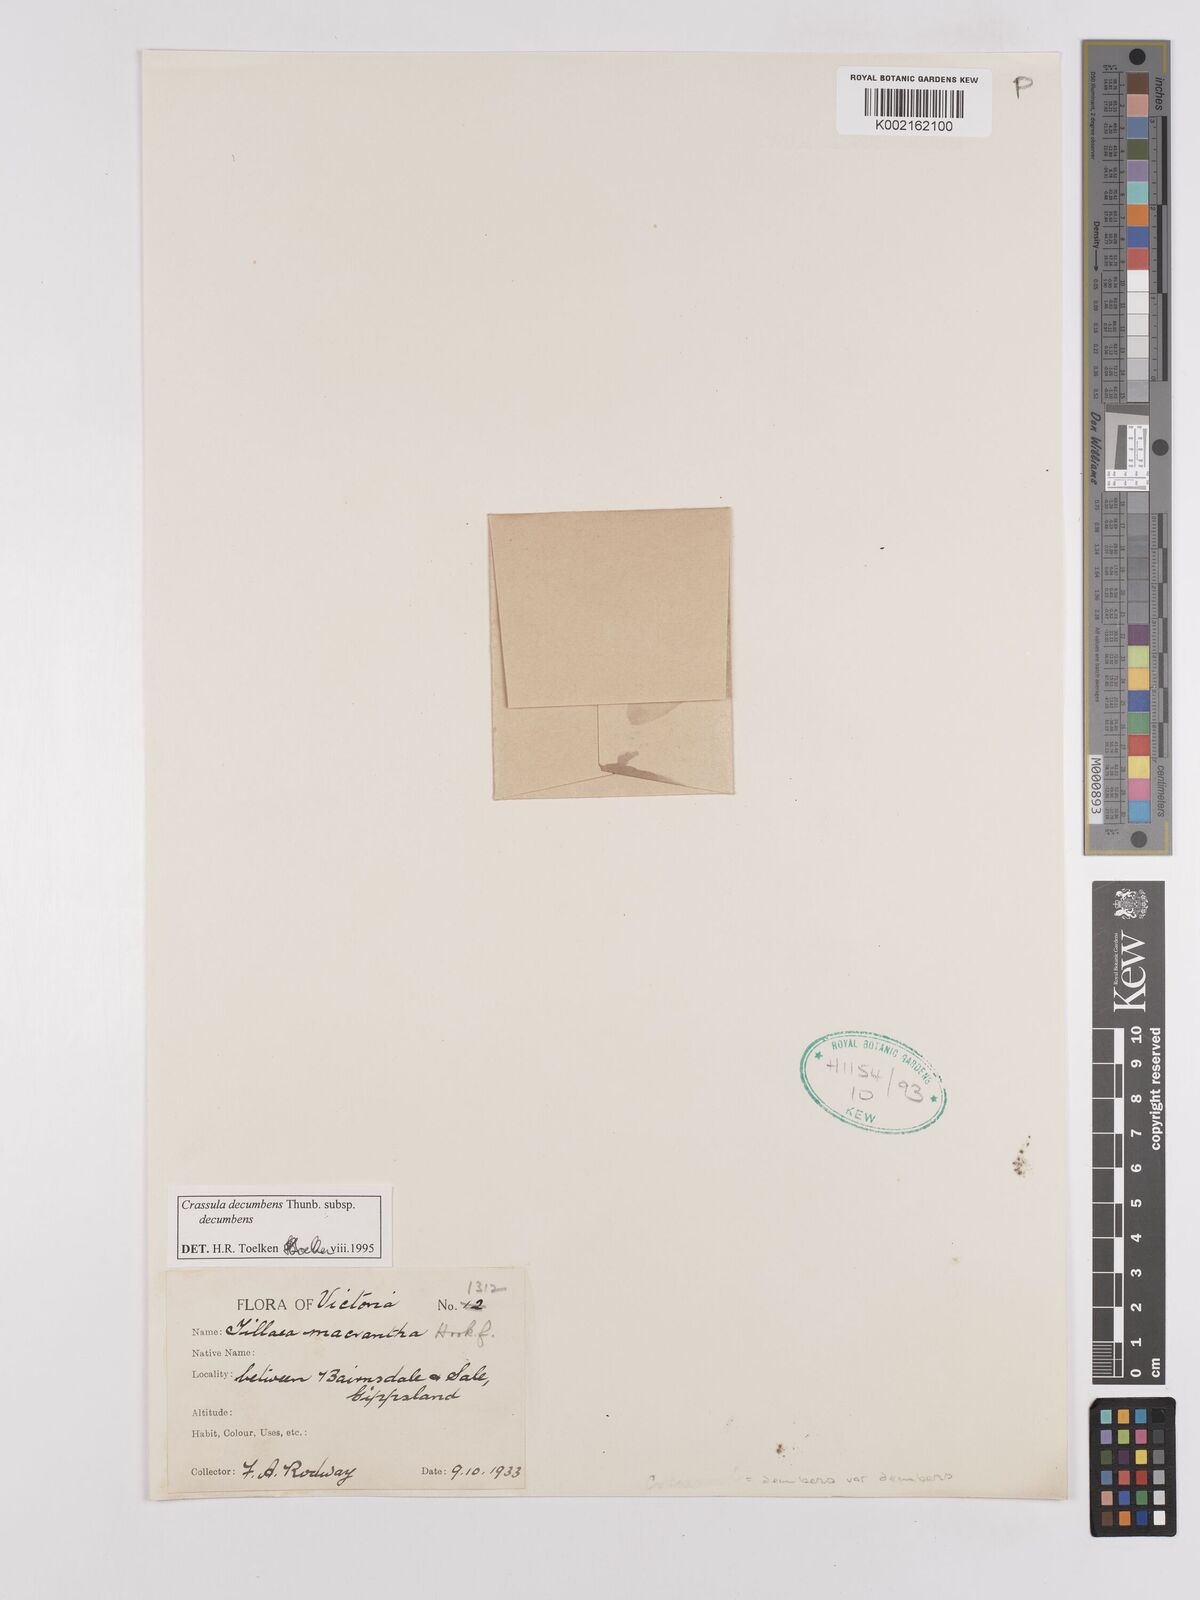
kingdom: Plantae
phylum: Tracheophyta
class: Magnoliopsida
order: Saxifragales
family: Crassulaceae
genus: Crassula
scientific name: Crassula decumbens
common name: Scilly pigmyweed
